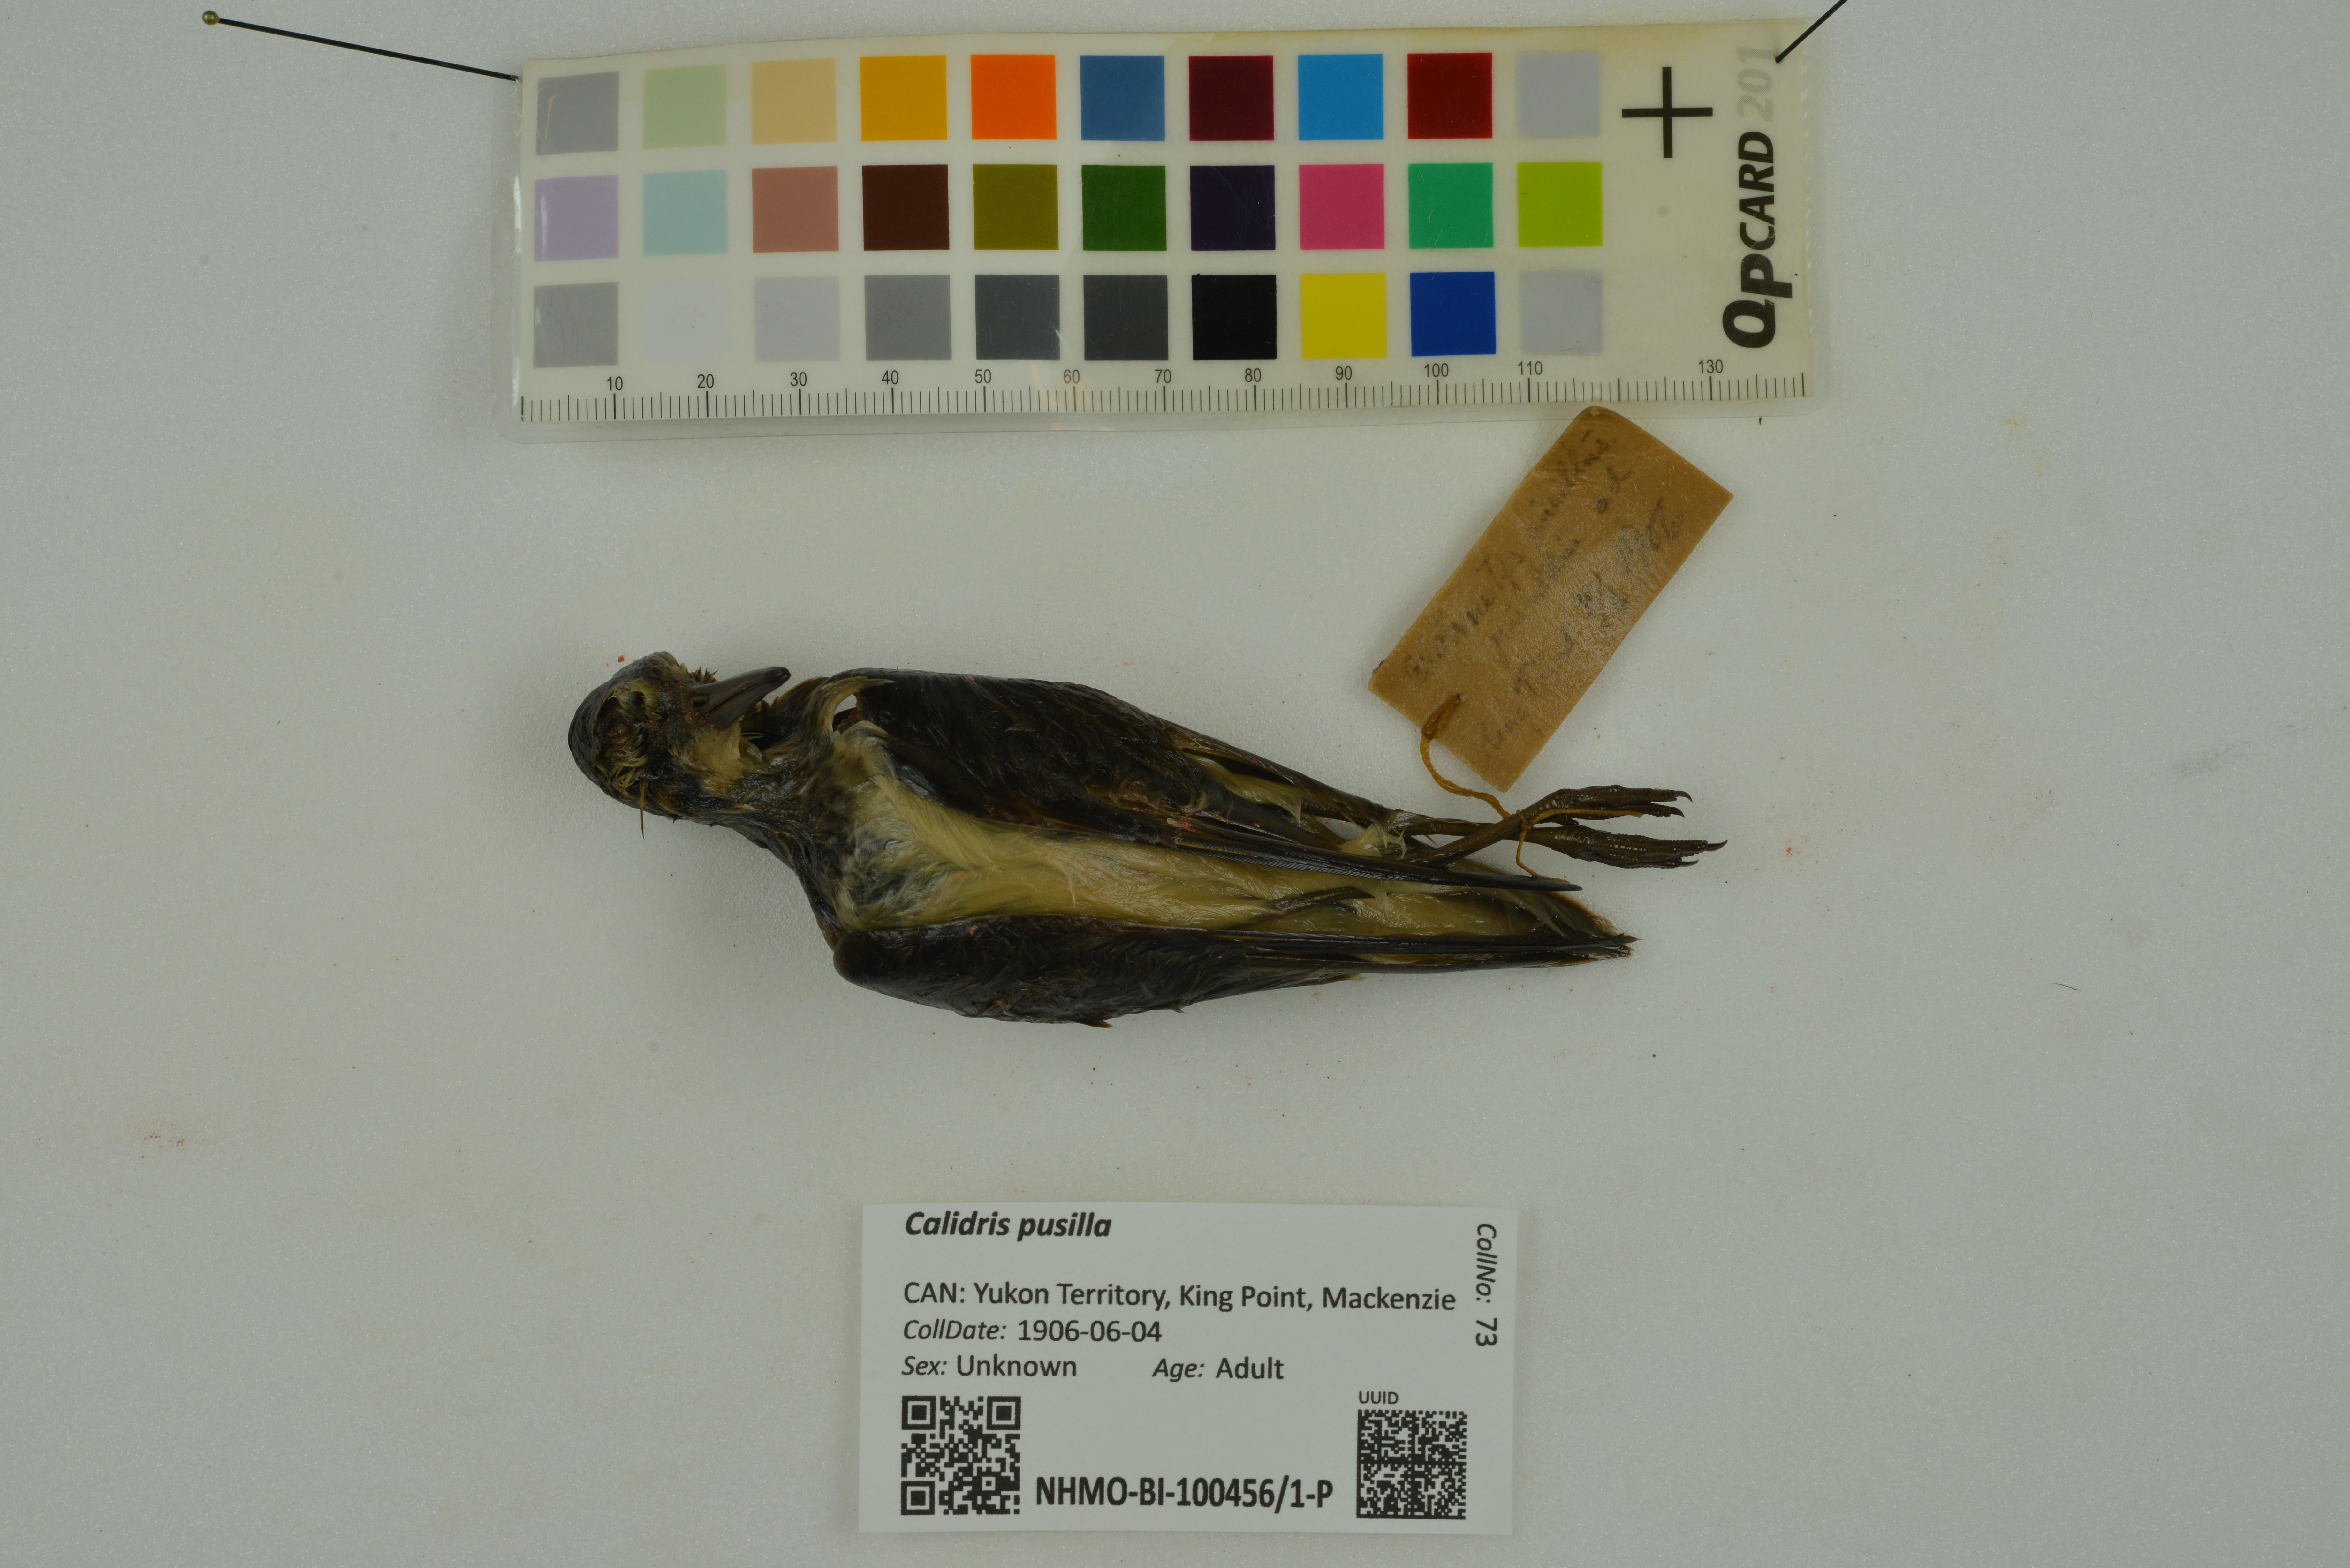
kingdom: Animalia
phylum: Chordata
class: Aves
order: Charadriiformes
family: Scolopacidae
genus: Calidris
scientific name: Calidris pusilla
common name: Semipalmated sandpiper
